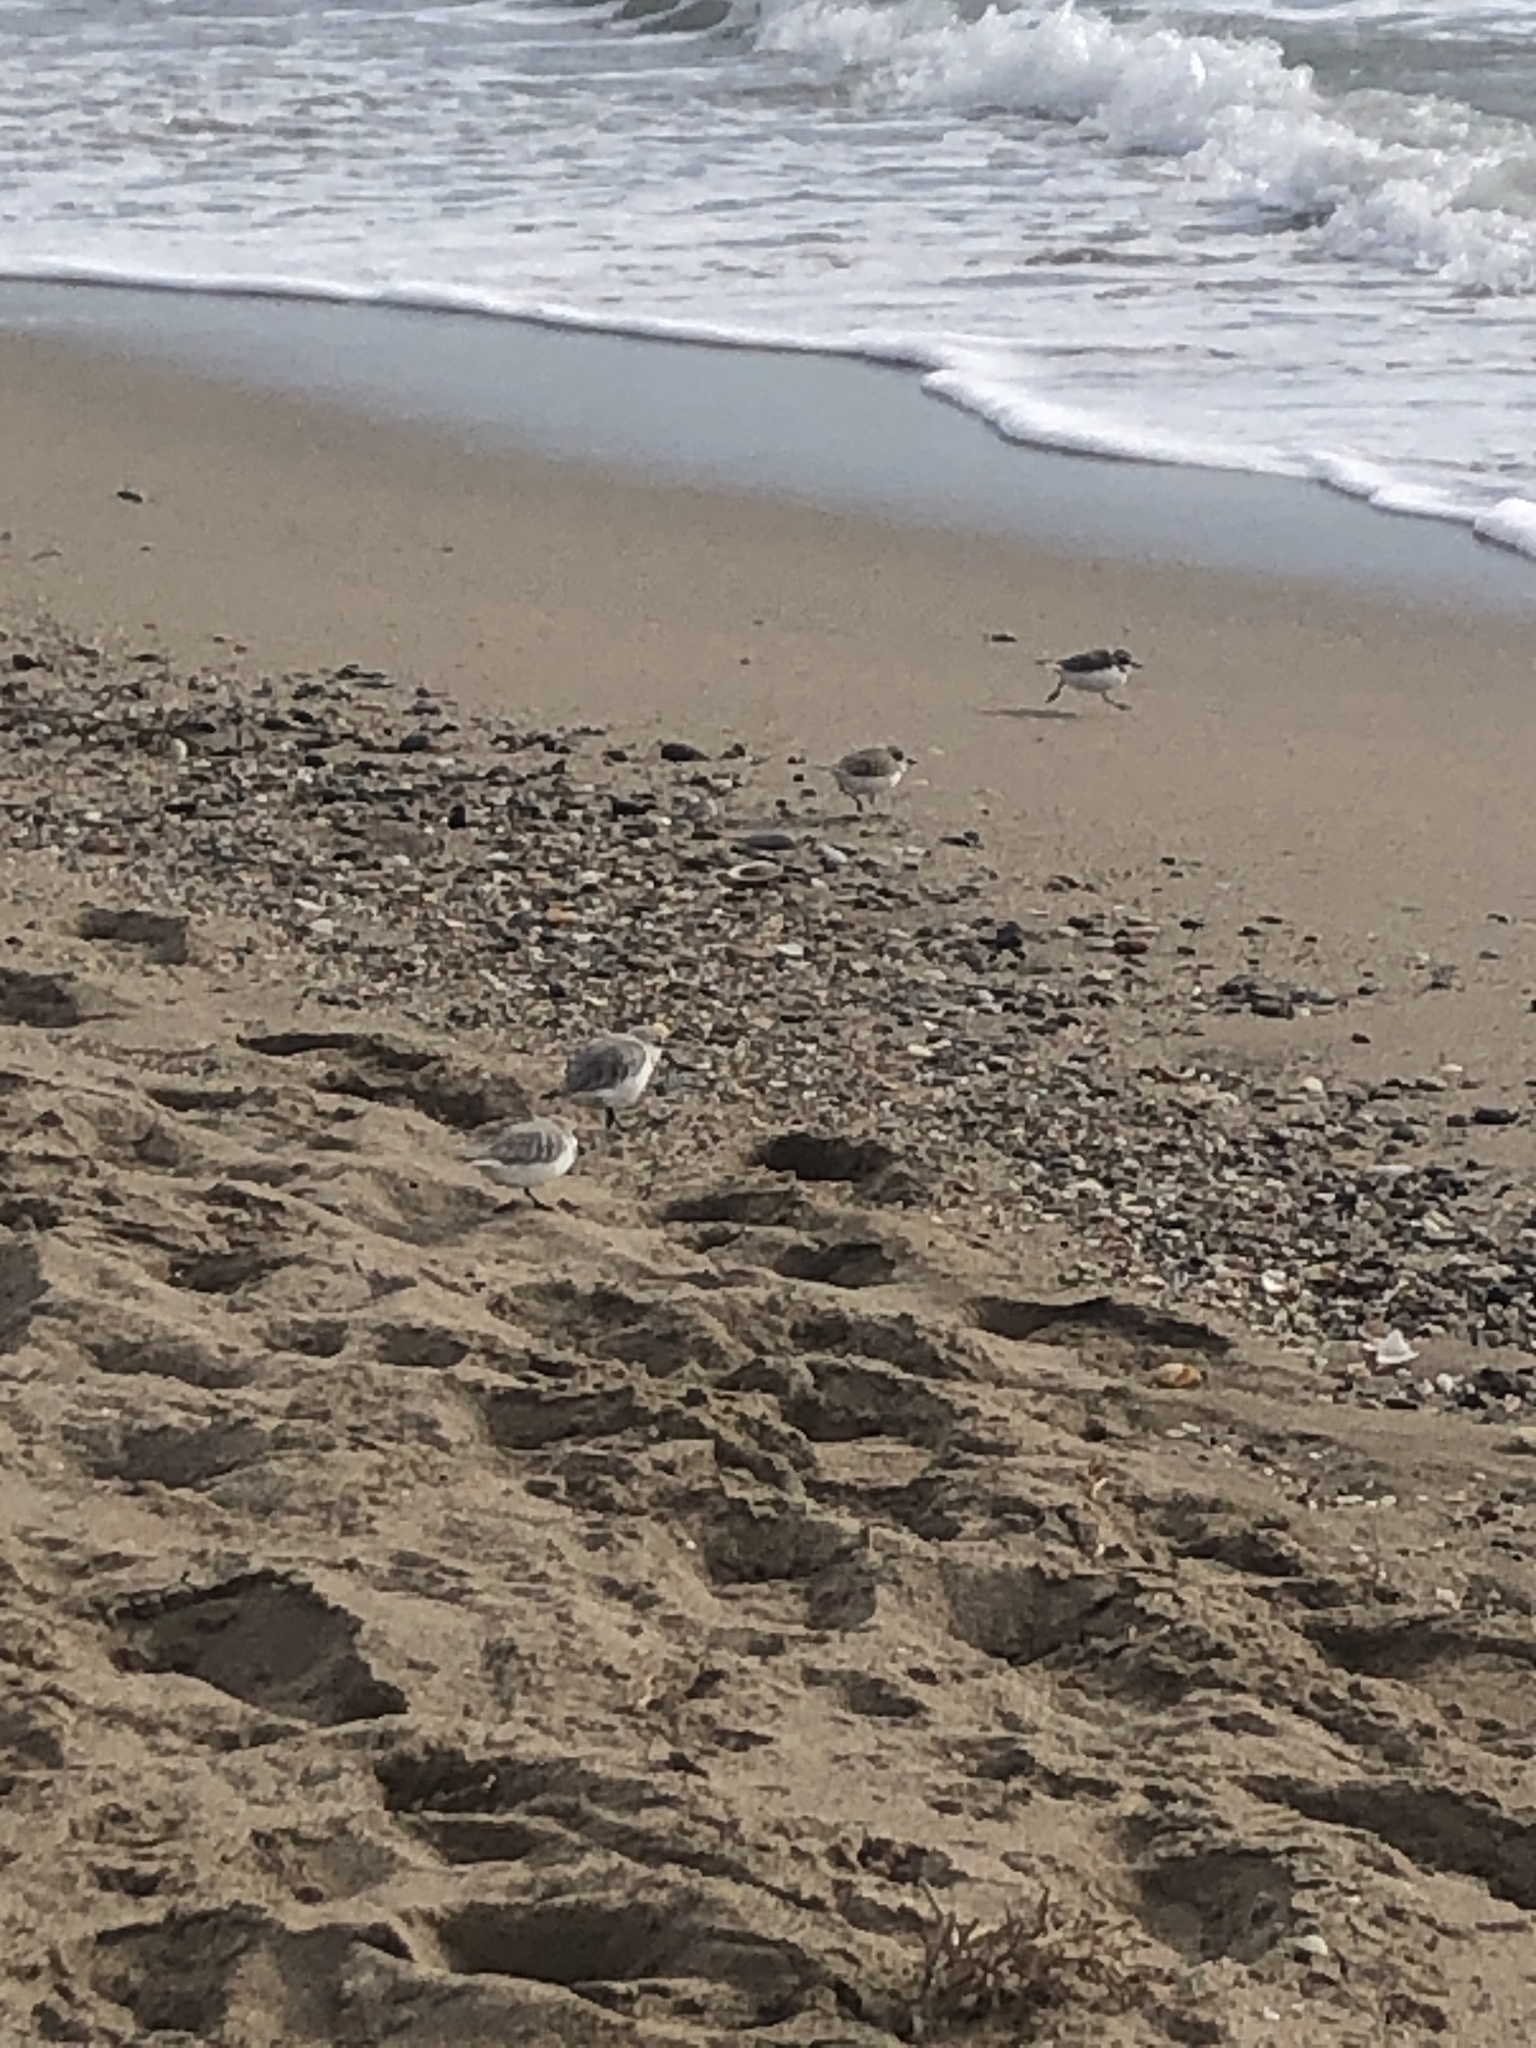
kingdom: Animalia
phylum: Chordata
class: Aves
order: Charadriiformes
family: Charadriidae
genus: Charadrius
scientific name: Charadrius alexandrinus
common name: Kentish plover
